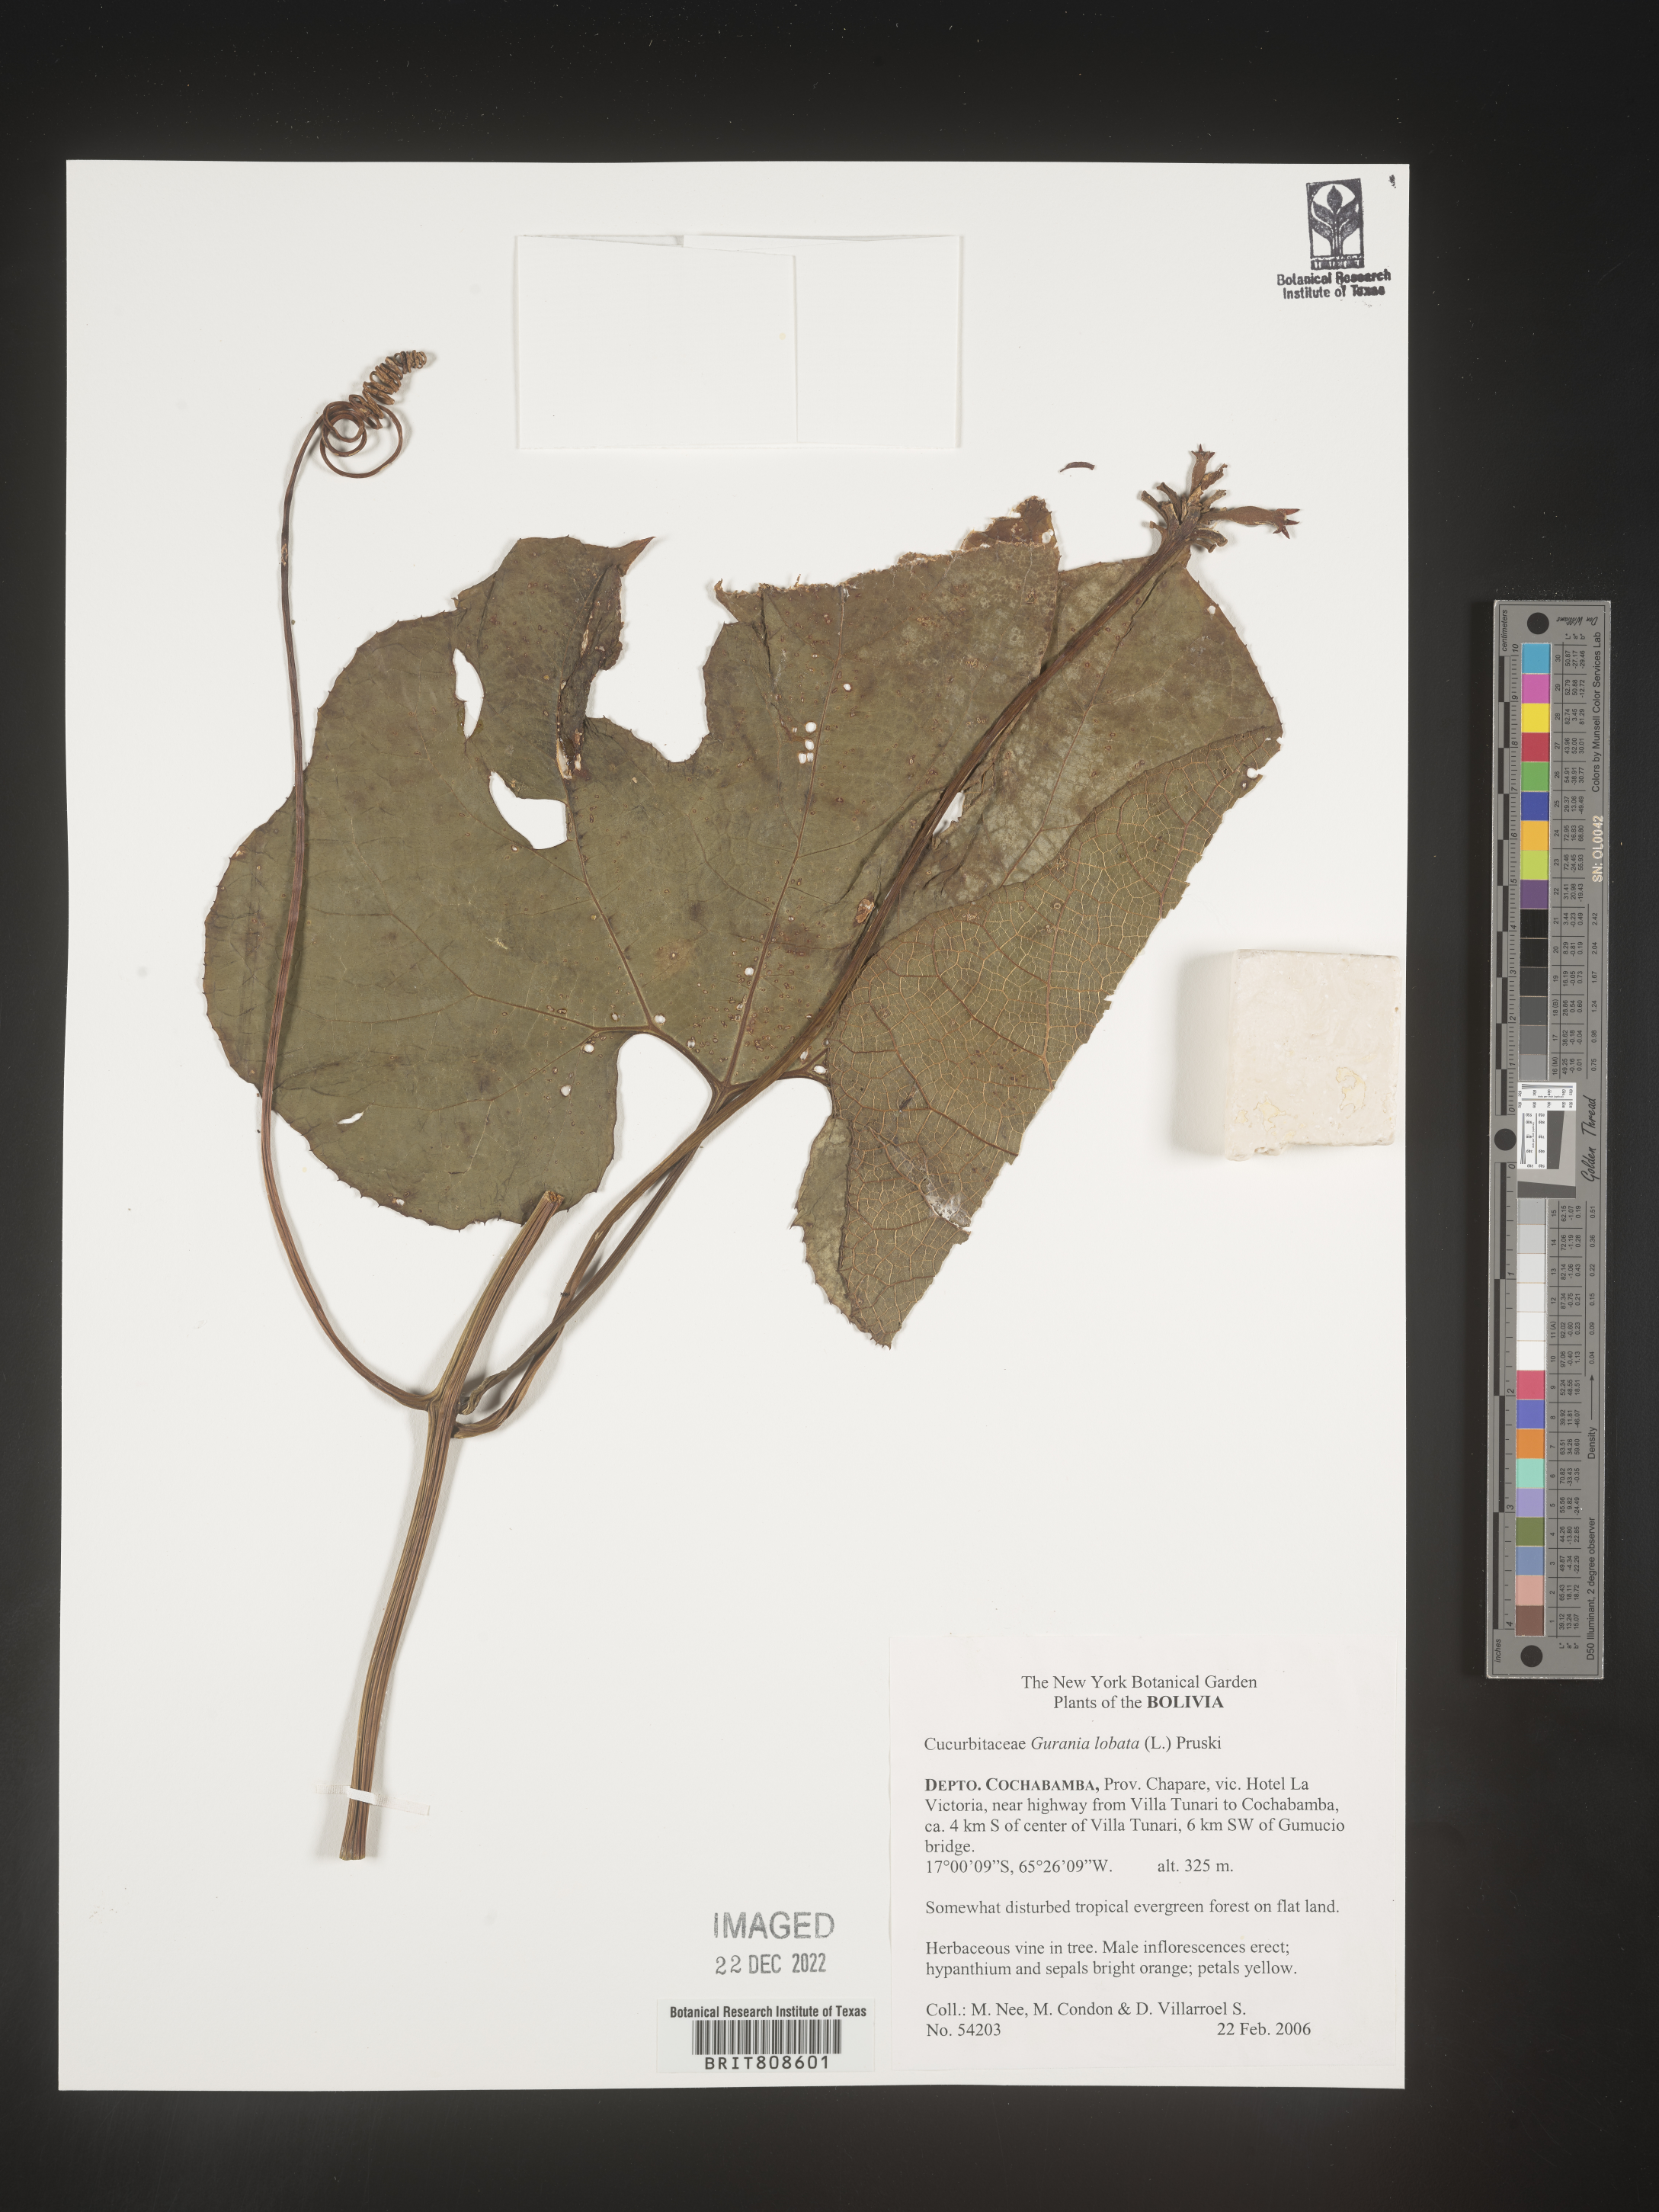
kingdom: Plantae
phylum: Tracheophyta
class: Magnoliopsida
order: Cucurbitales
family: Cucurbitaceae
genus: Gurania
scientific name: Gurania
